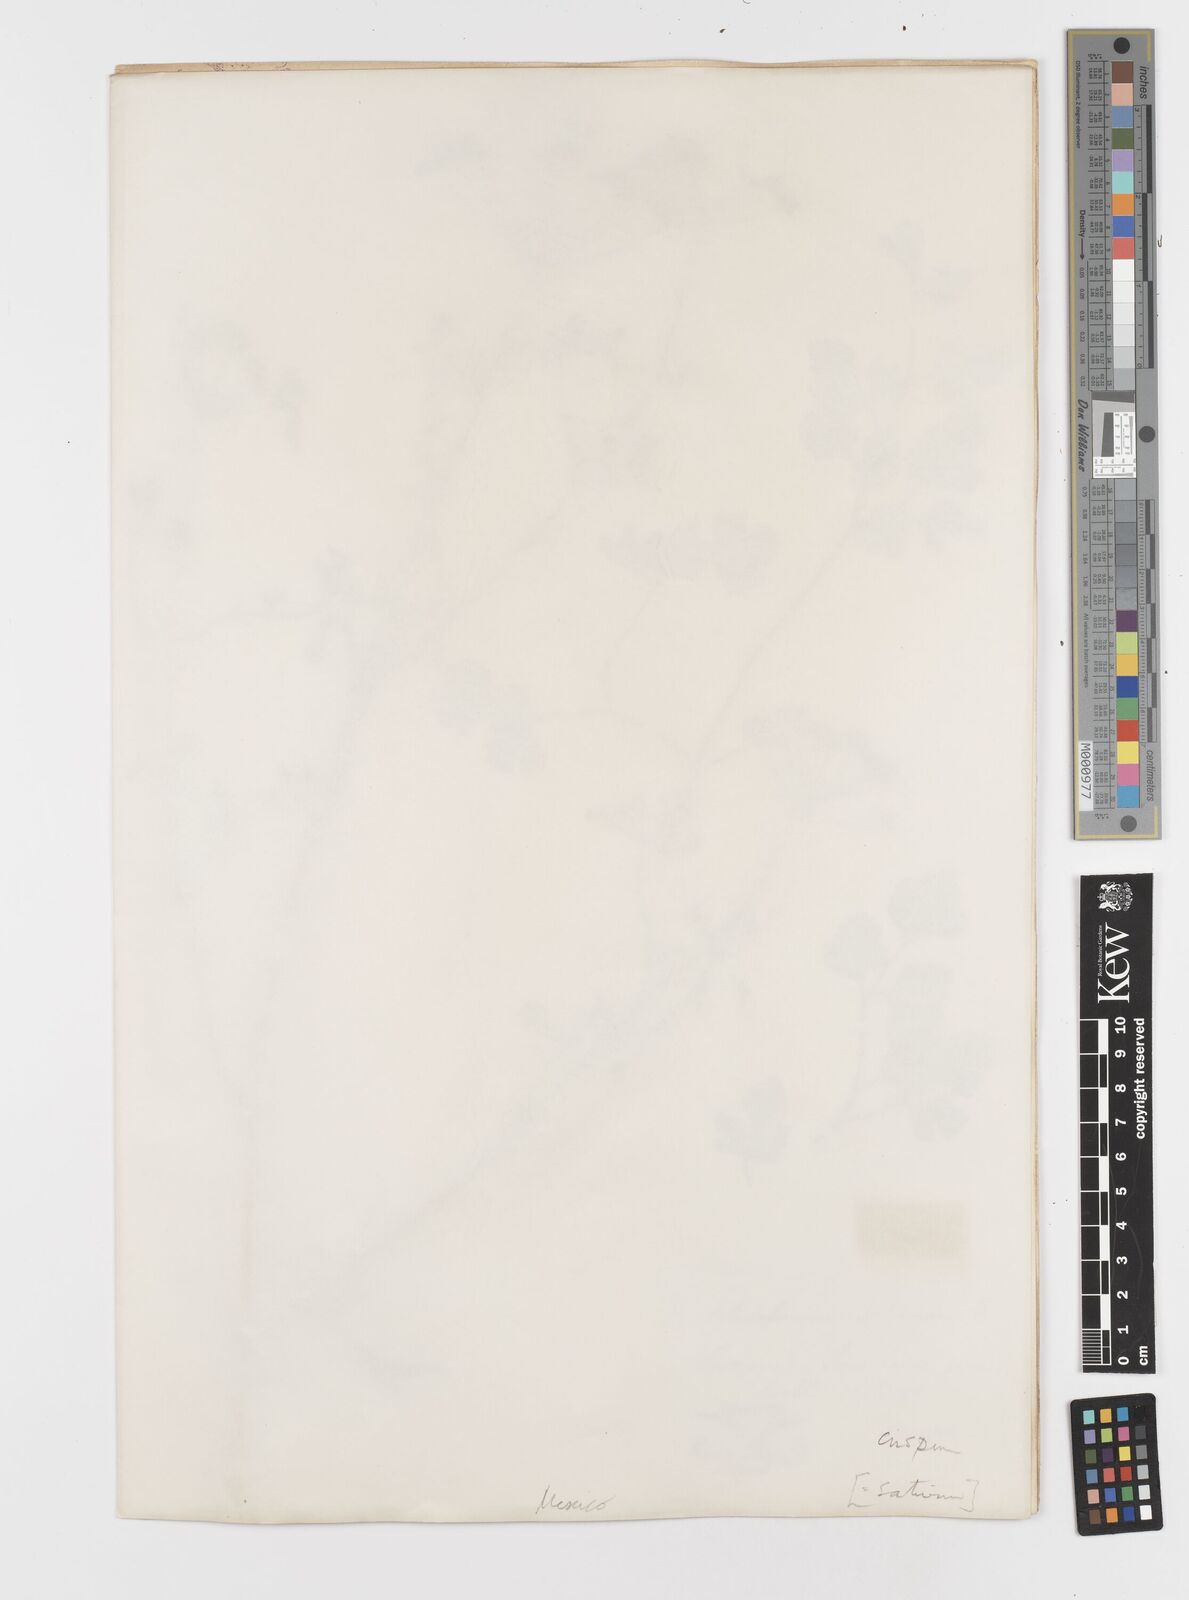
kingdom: Plantae
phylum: Tracheophyta
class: Magnoliopsida
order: Apiales
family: Apiaceae
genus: Petroselinum
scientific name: Petroselinum
